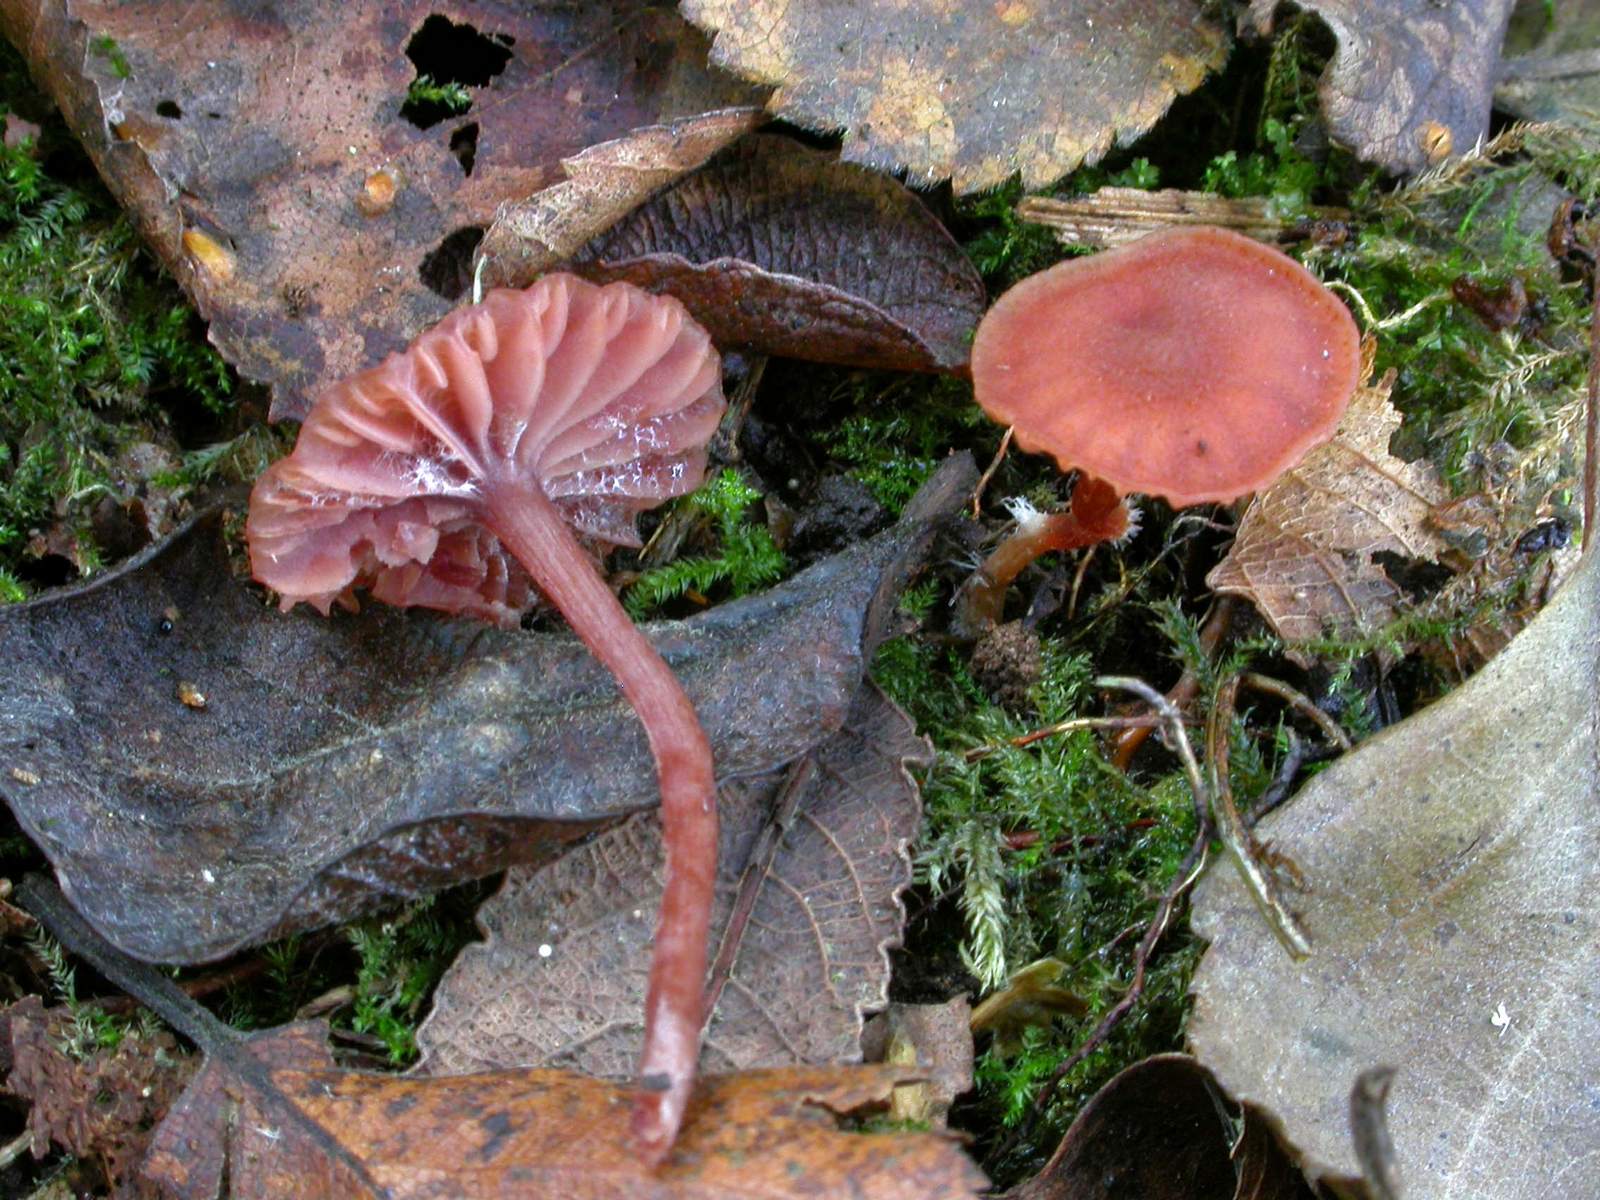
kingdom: Fungi
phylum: Basidiomycota
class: Agaricomycetes
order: Agaricales
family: Hydnangiaceae
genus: Laccaria
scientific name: Laccaria laccata
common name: rød ametysthat
